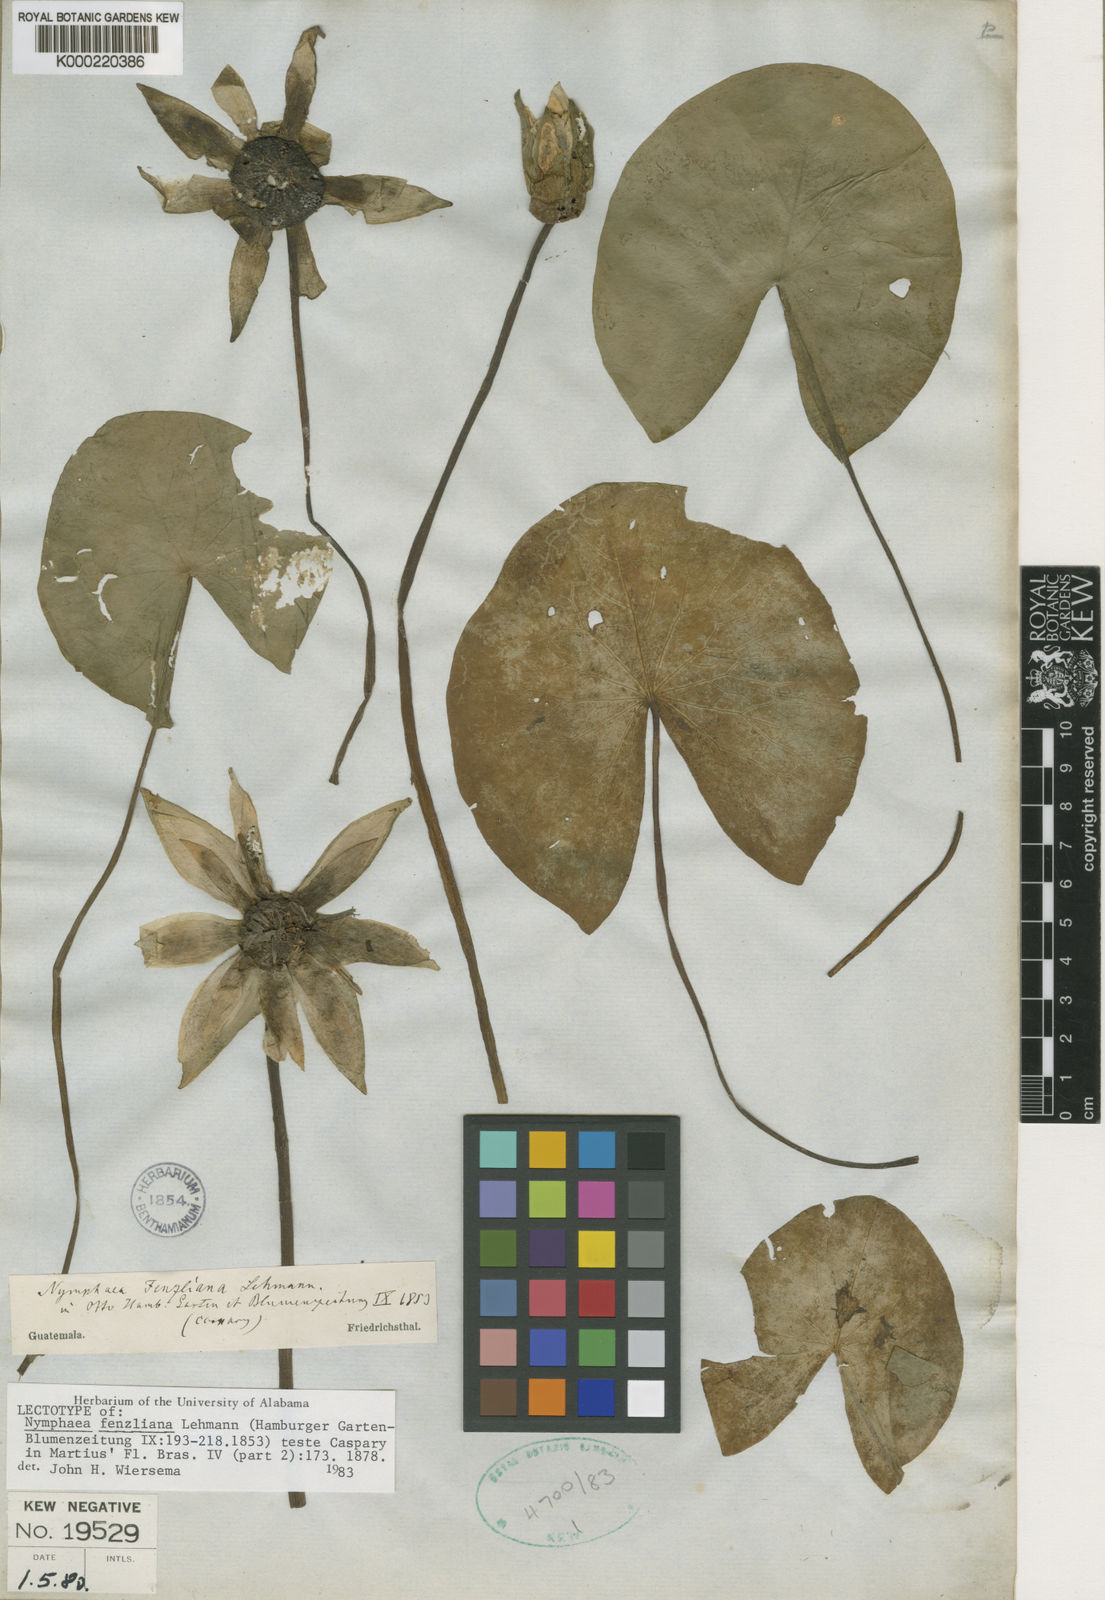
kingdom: Plantae
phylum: Tracheophyta
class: Magnoliopsida
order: Nymphaeales
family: Nymphaeaceae
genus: Nymphaea
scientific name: Nymphaea
